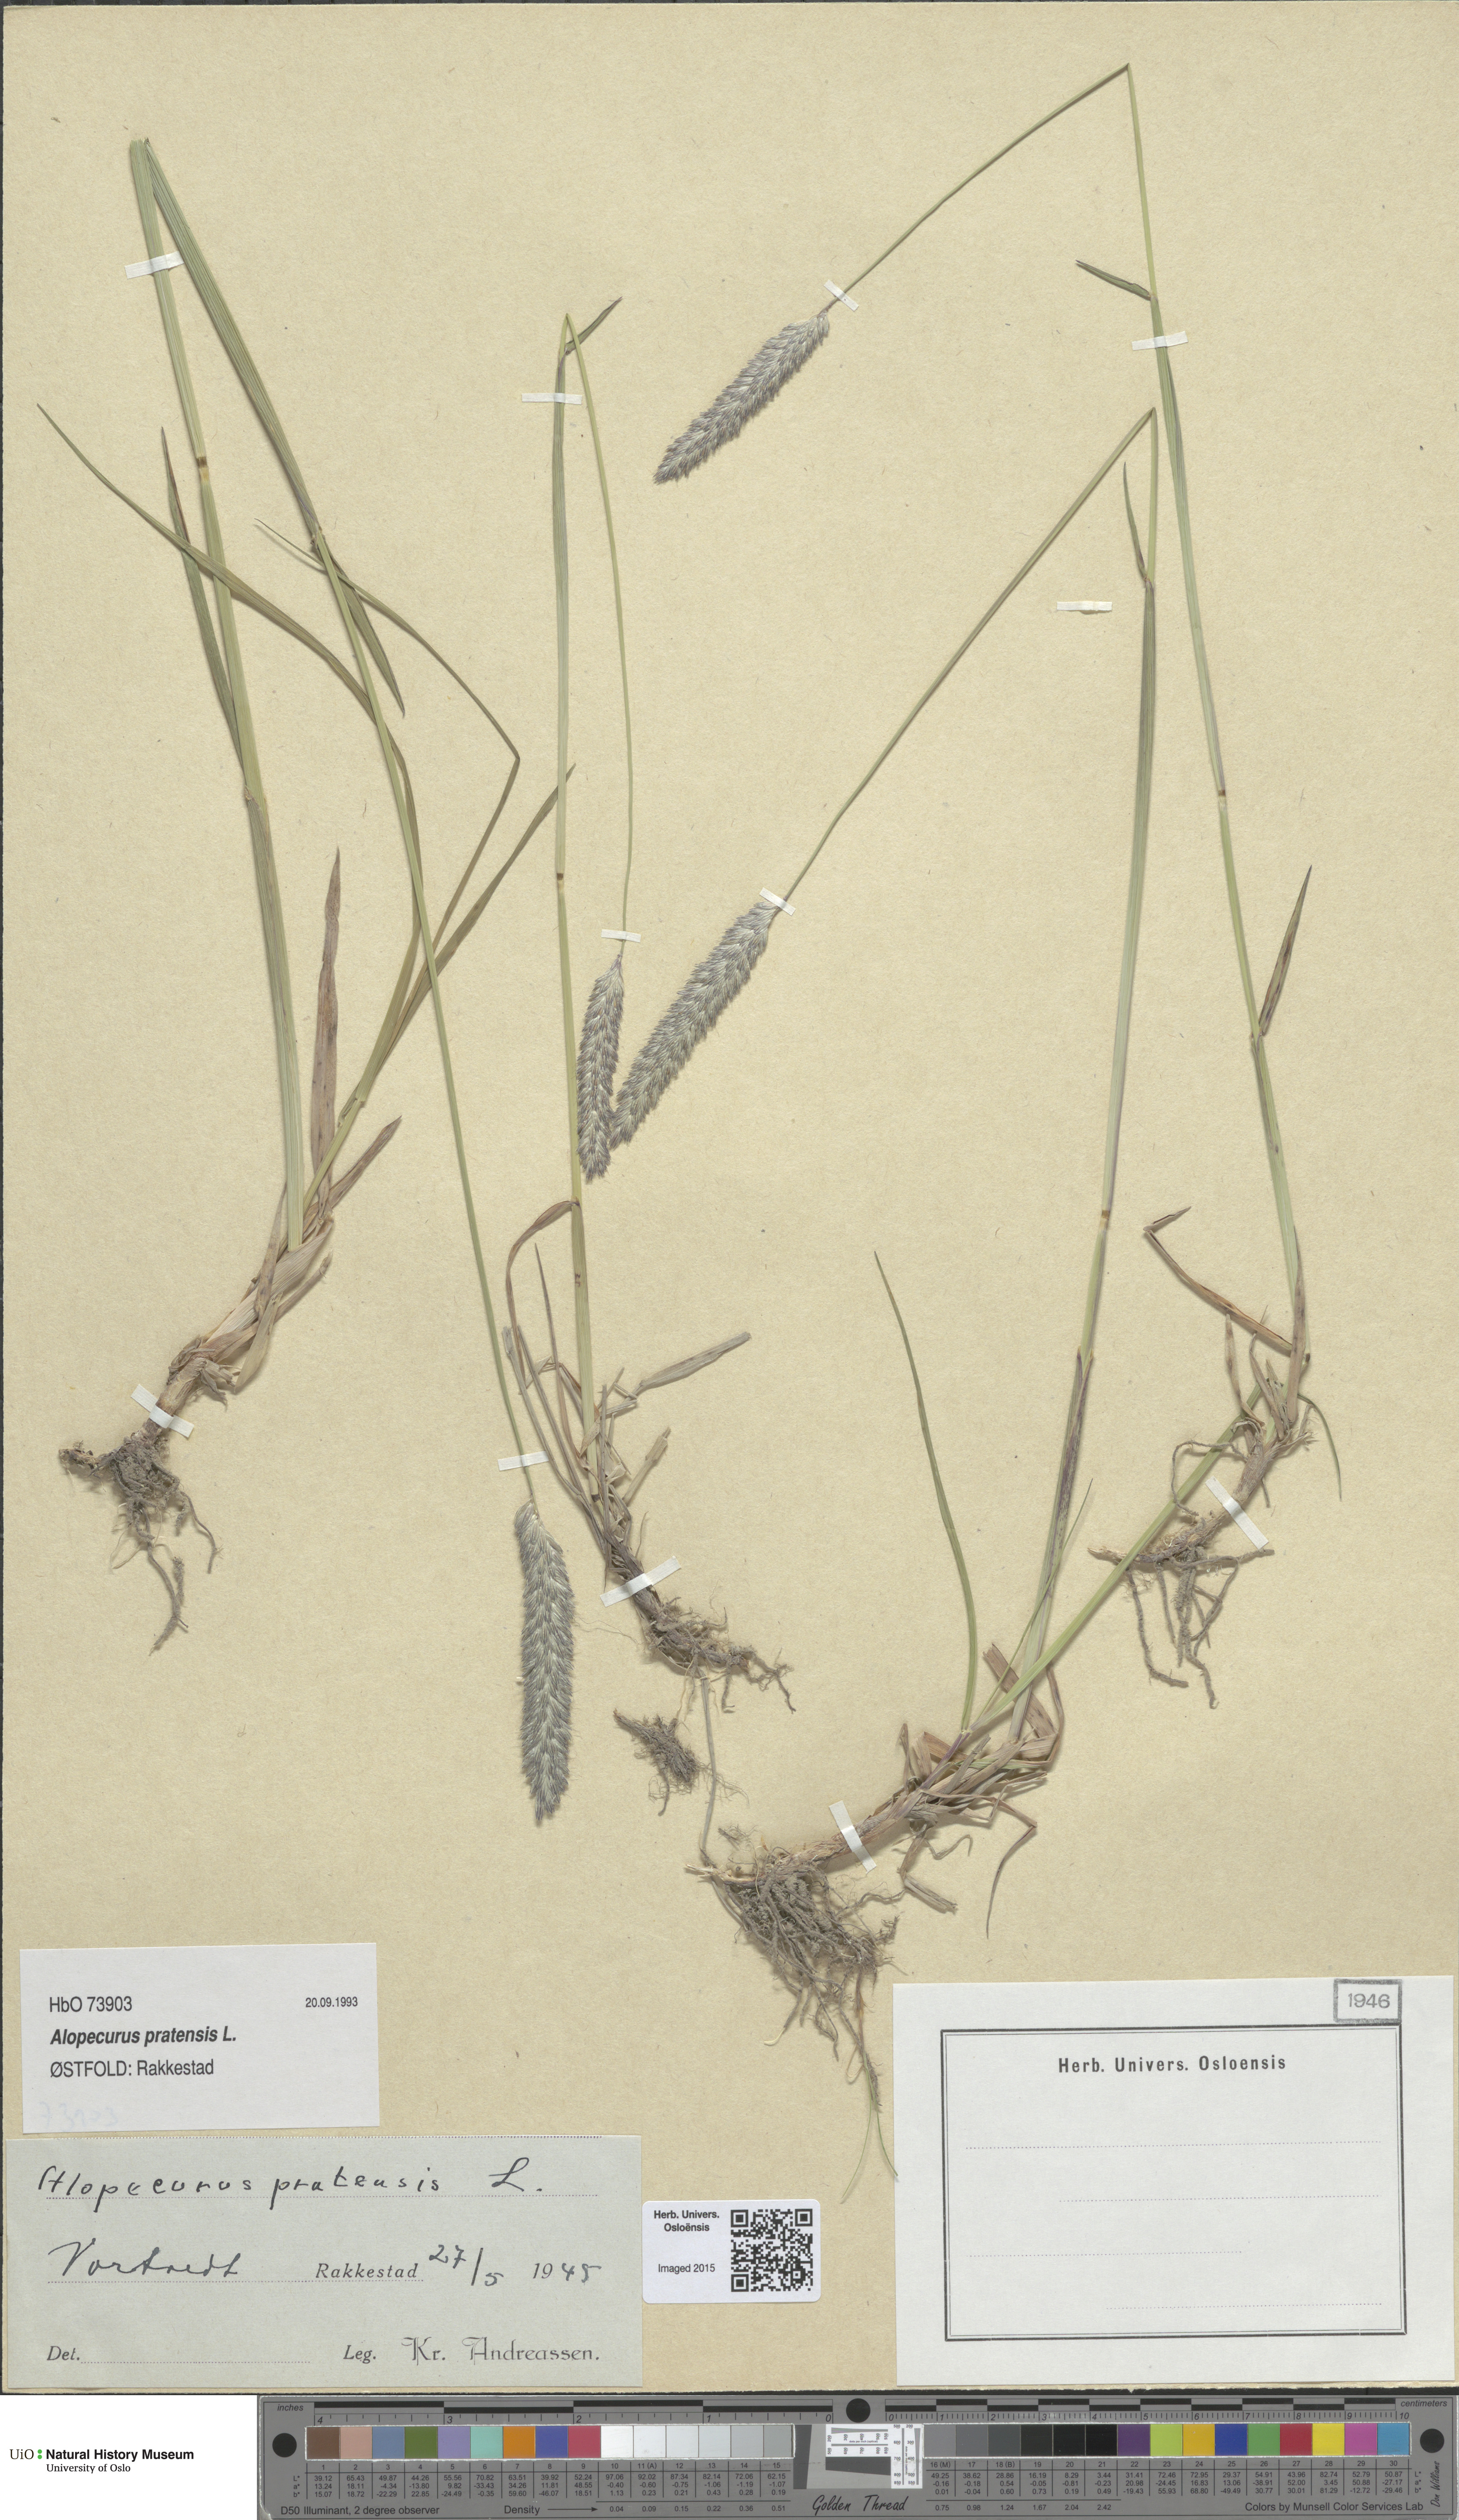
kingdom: Plantae
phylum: Tracheophyta
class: Liliopsida
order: Poales
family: Poaceae
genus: Alopecurus
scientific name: Alopecurus pratensis
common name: Meadow foxtail
